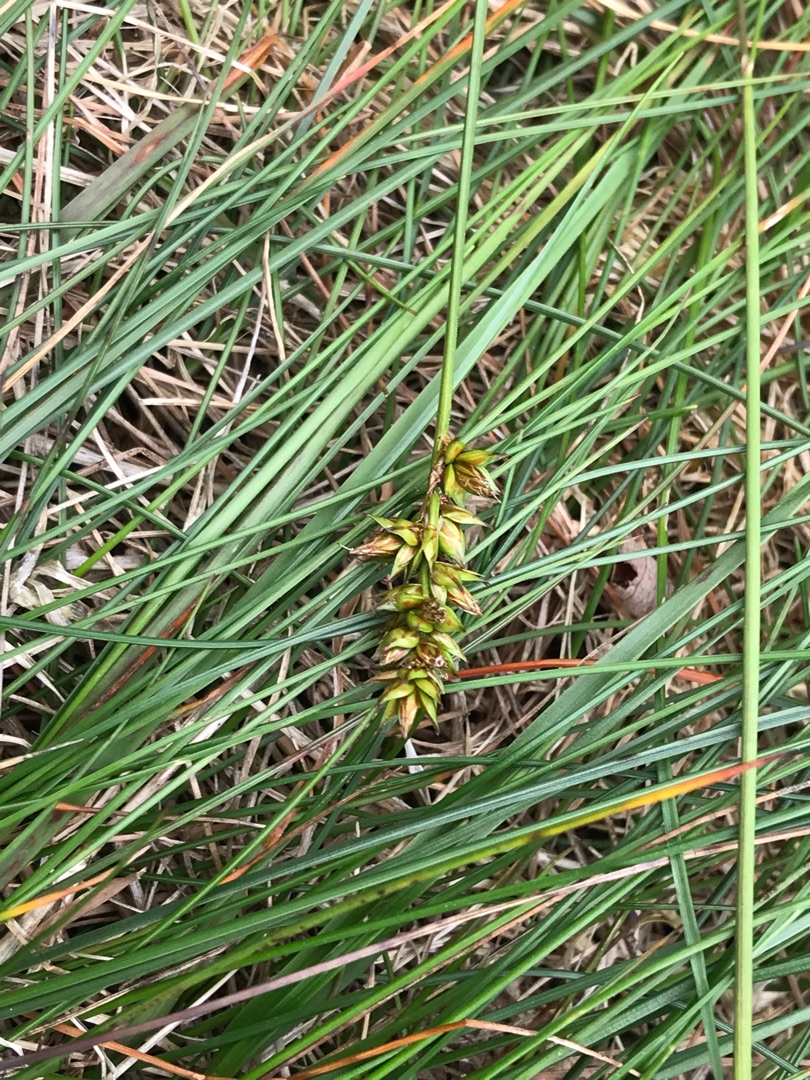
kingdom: Plantae
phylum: Tracheophyta
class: Liliopsida
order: Poales
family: Cyperaceae
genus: Carex
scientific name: Carex pairae
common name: Pigget star
